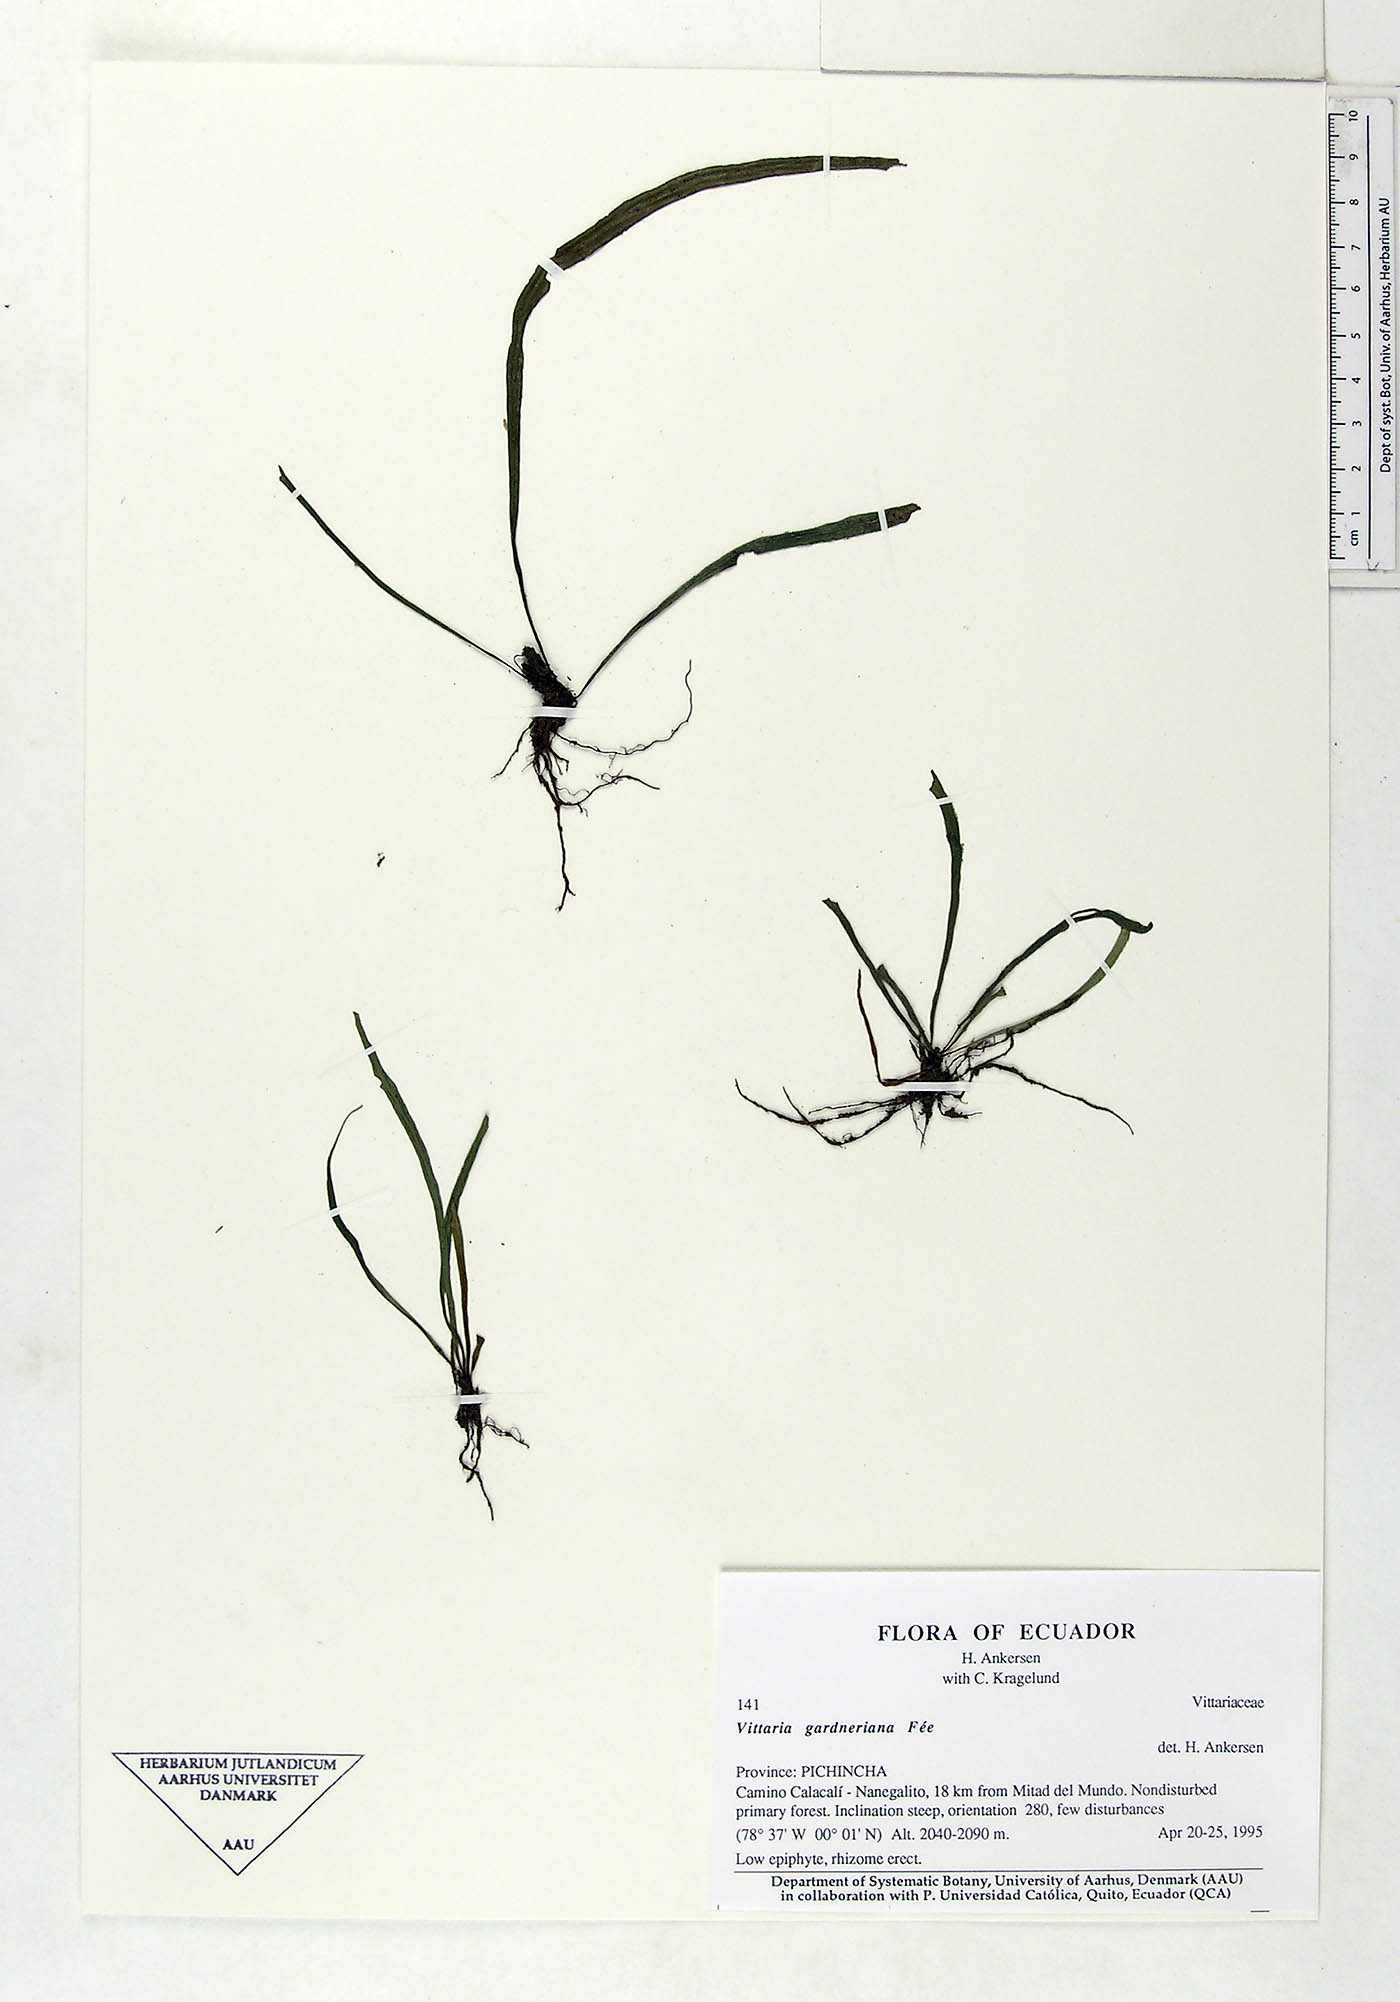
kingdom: Plantae
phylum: Tracheophyta
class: Polypodiopsida
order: Polypodiales
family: Pteridaceae
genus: Radiovittaria
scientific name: Radiovittaria gardneriana
